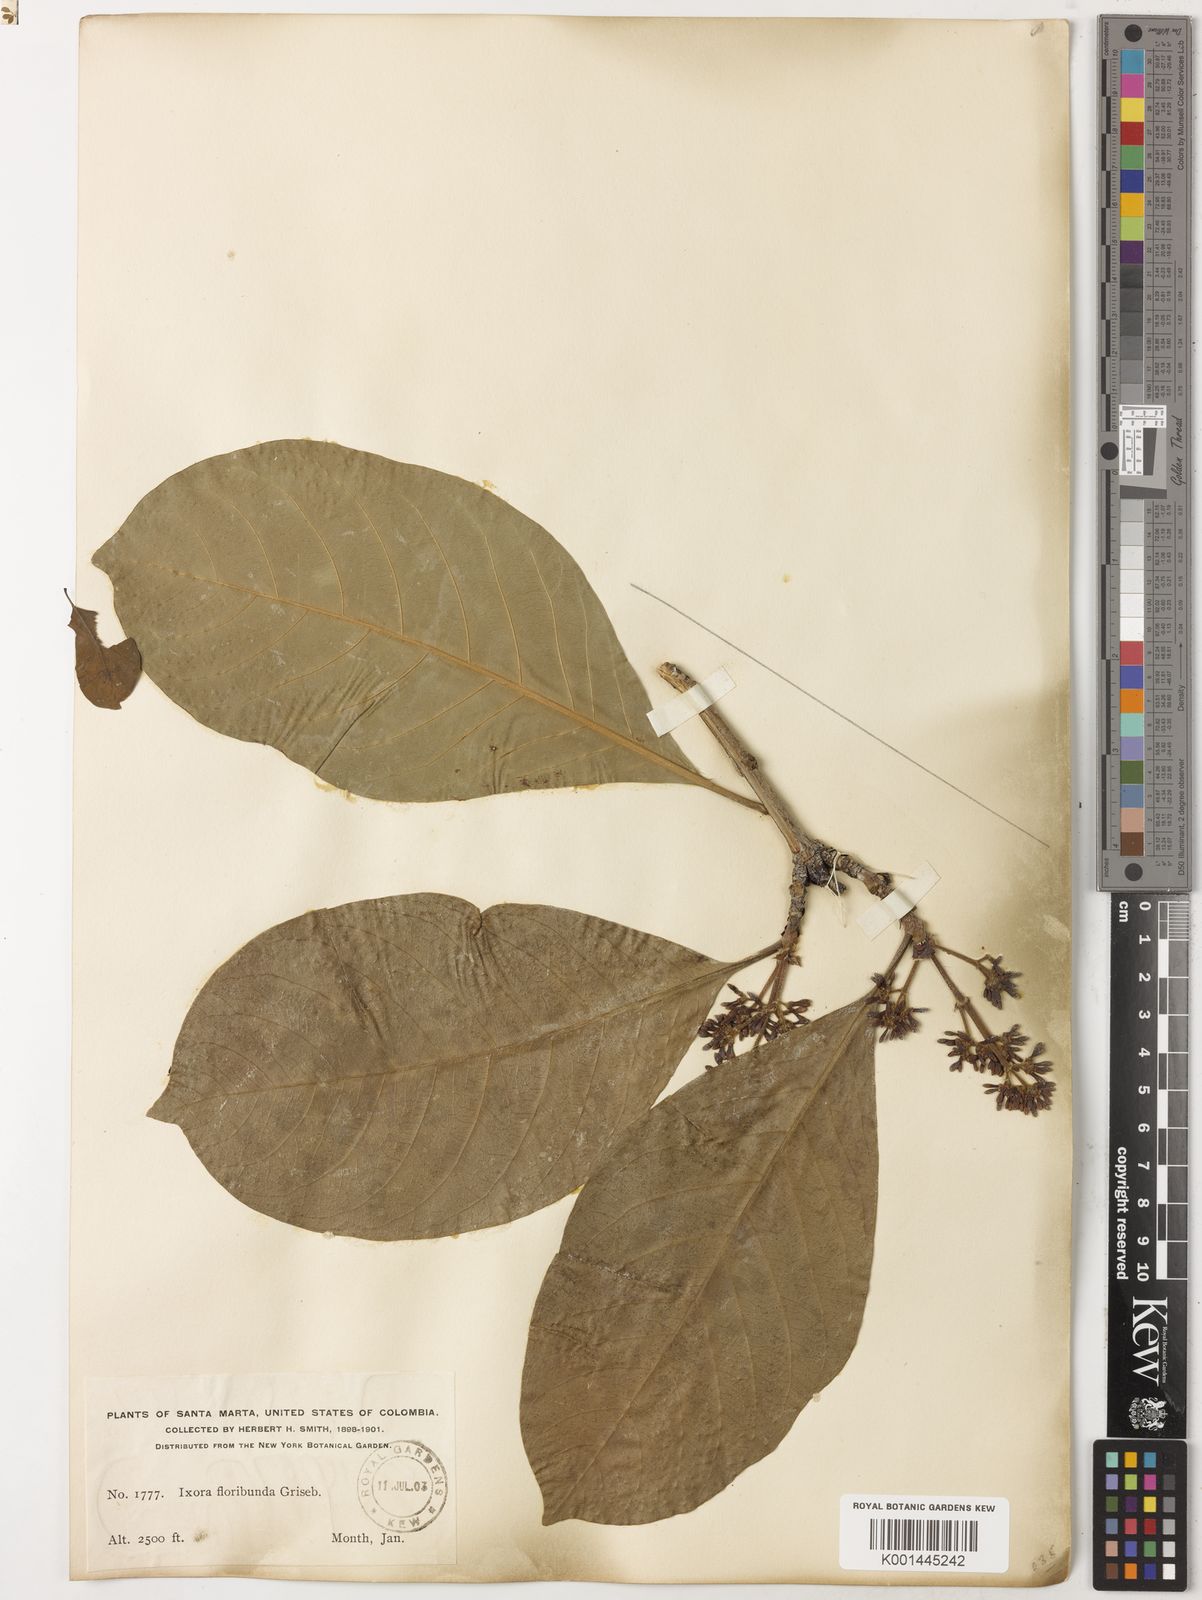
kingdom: Plantae
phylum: Tracheophyta
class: Magnoliopsida
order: Gentianales
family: Rubiaceae
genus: Ixora
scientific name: Ixora floribunda
